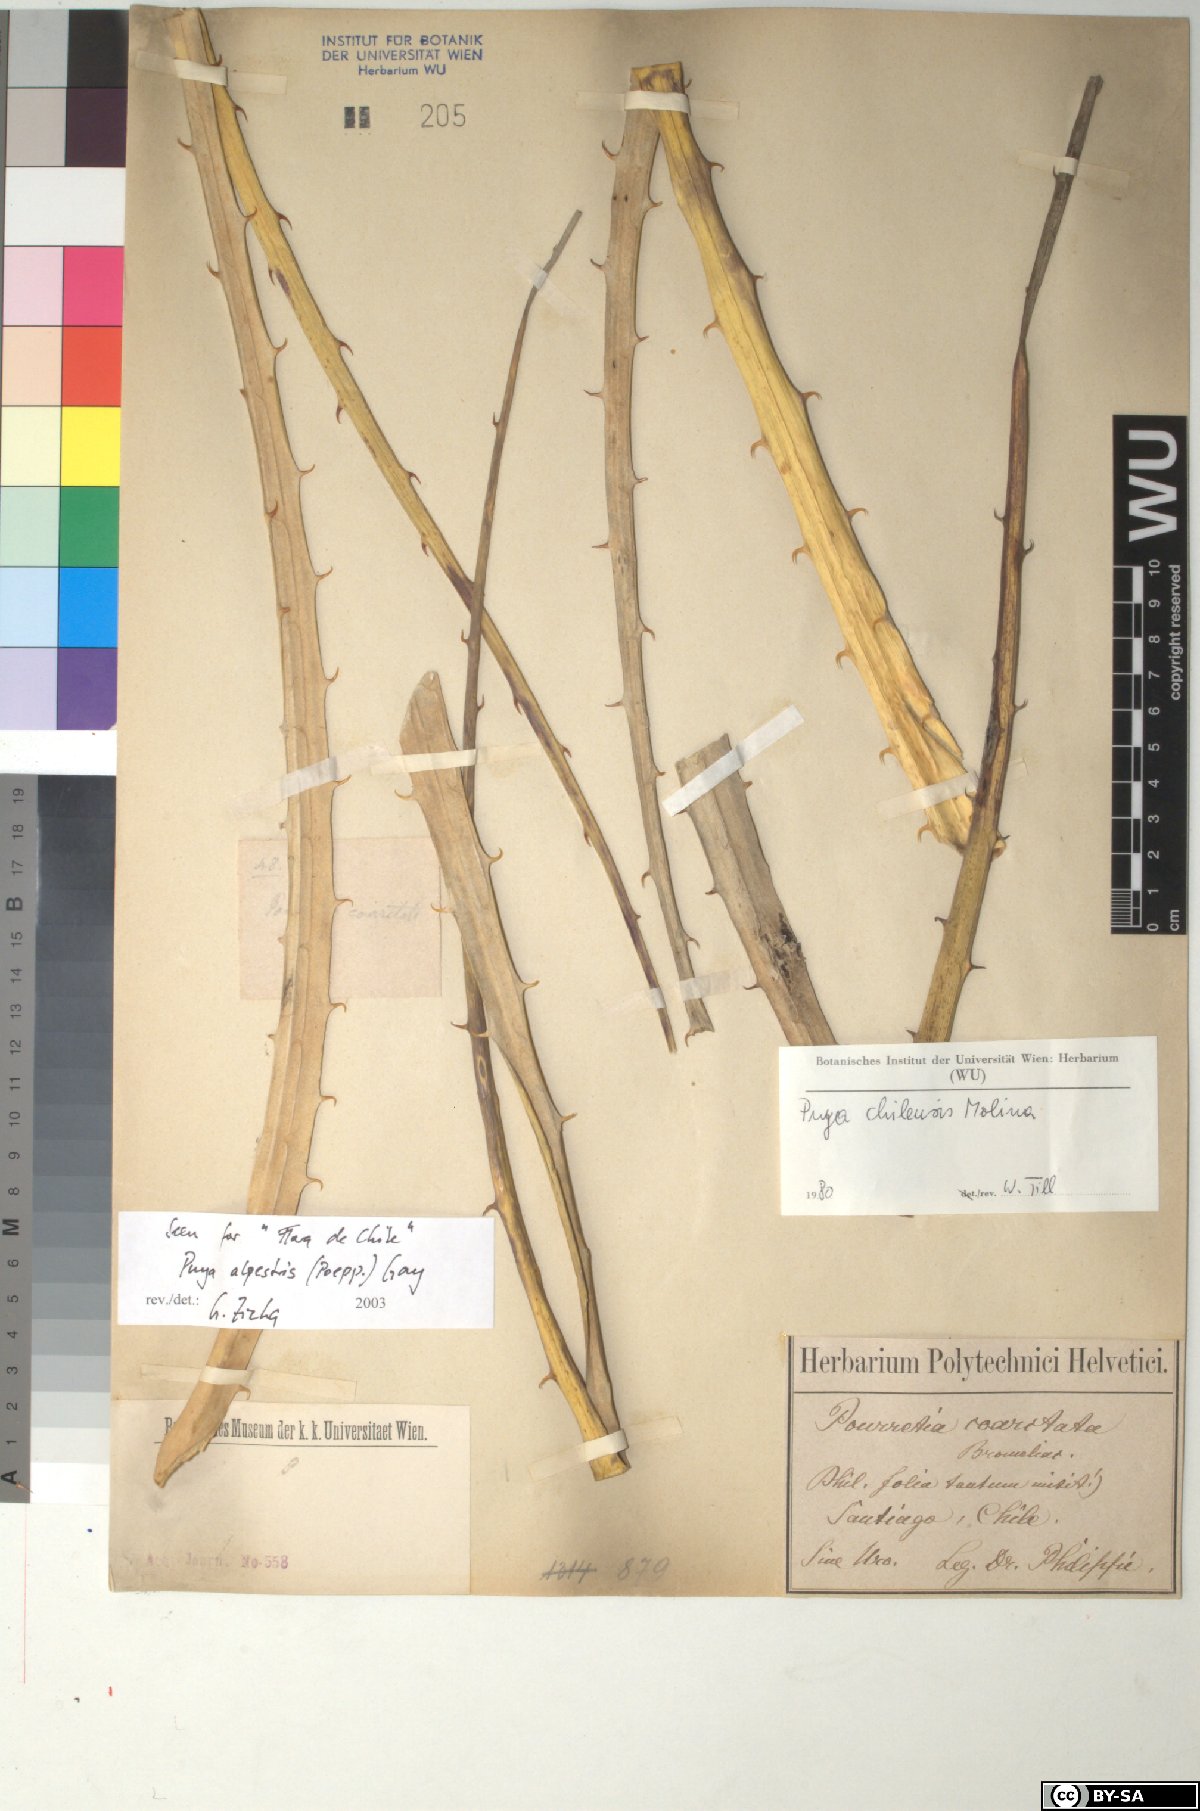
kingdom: Plantae
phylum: Tracheophyta
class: Liliopsida
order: Poales
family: Bromeliaceae
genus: Puya
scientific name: Puya chilensis
